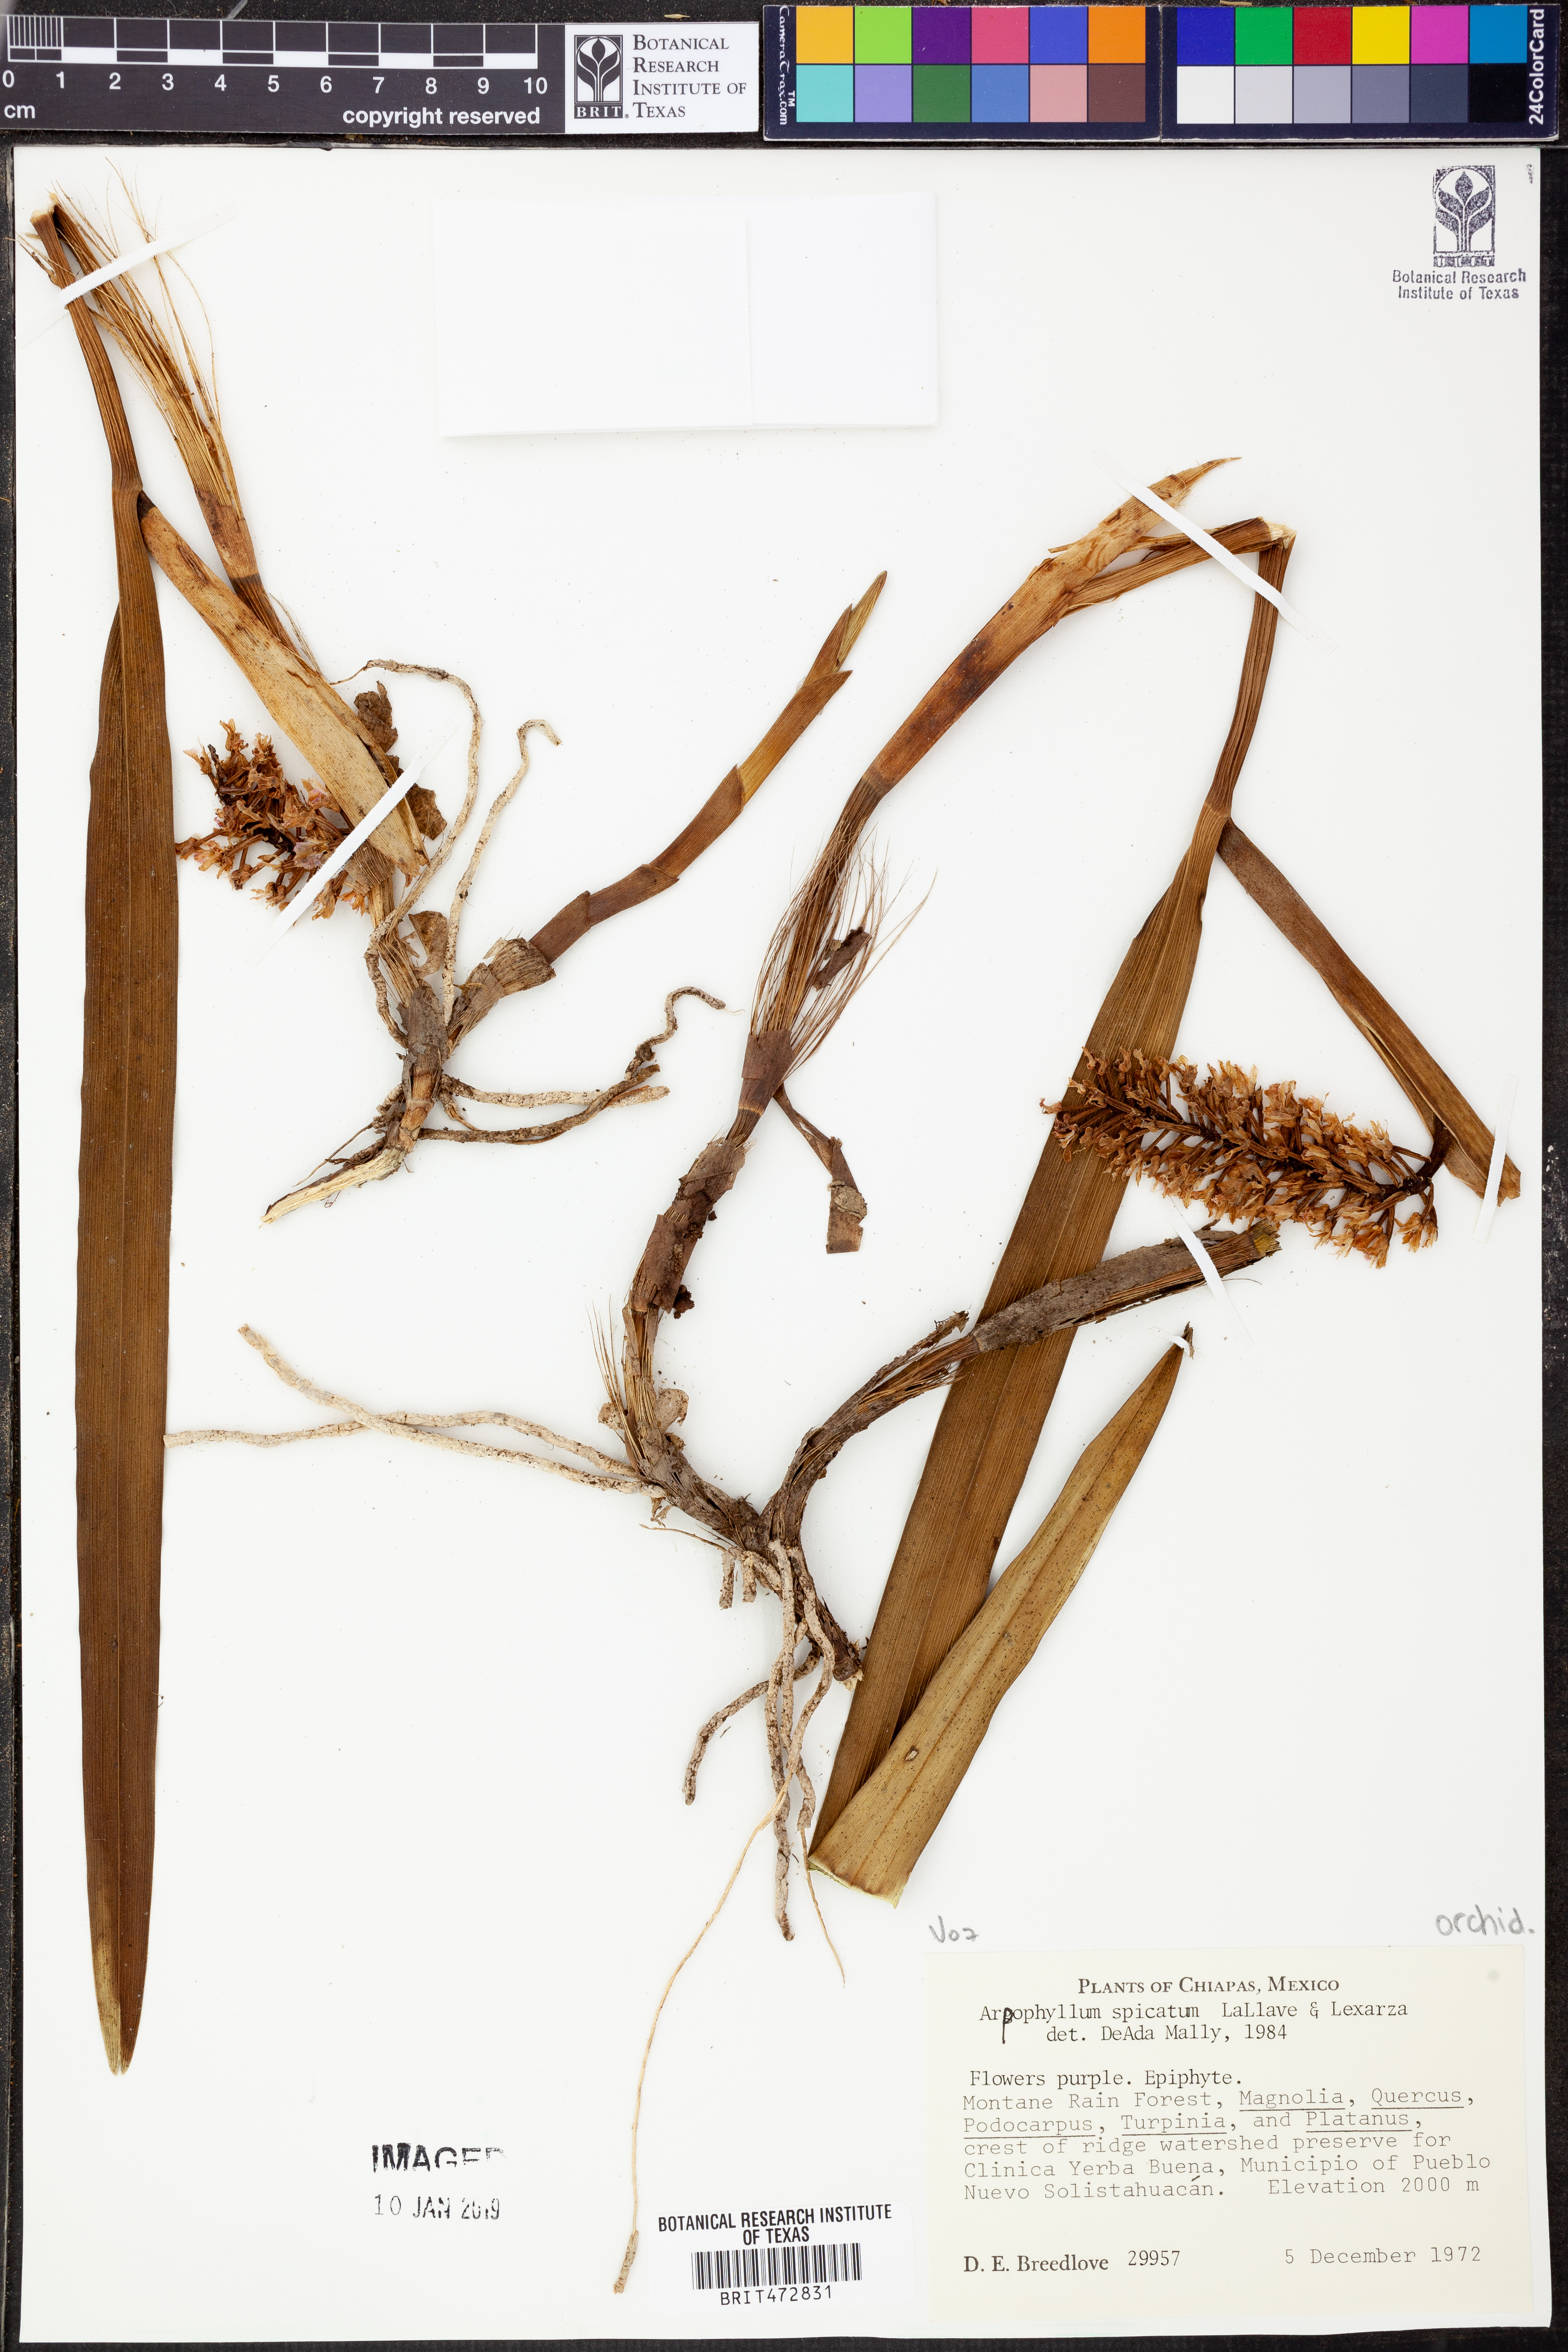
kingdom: Plantae
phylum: Tracheophyta
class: Liliopsida
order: Asparagales
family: Orchidaceae
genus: Arpophyllum
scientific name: Arpophyllum spicatum
